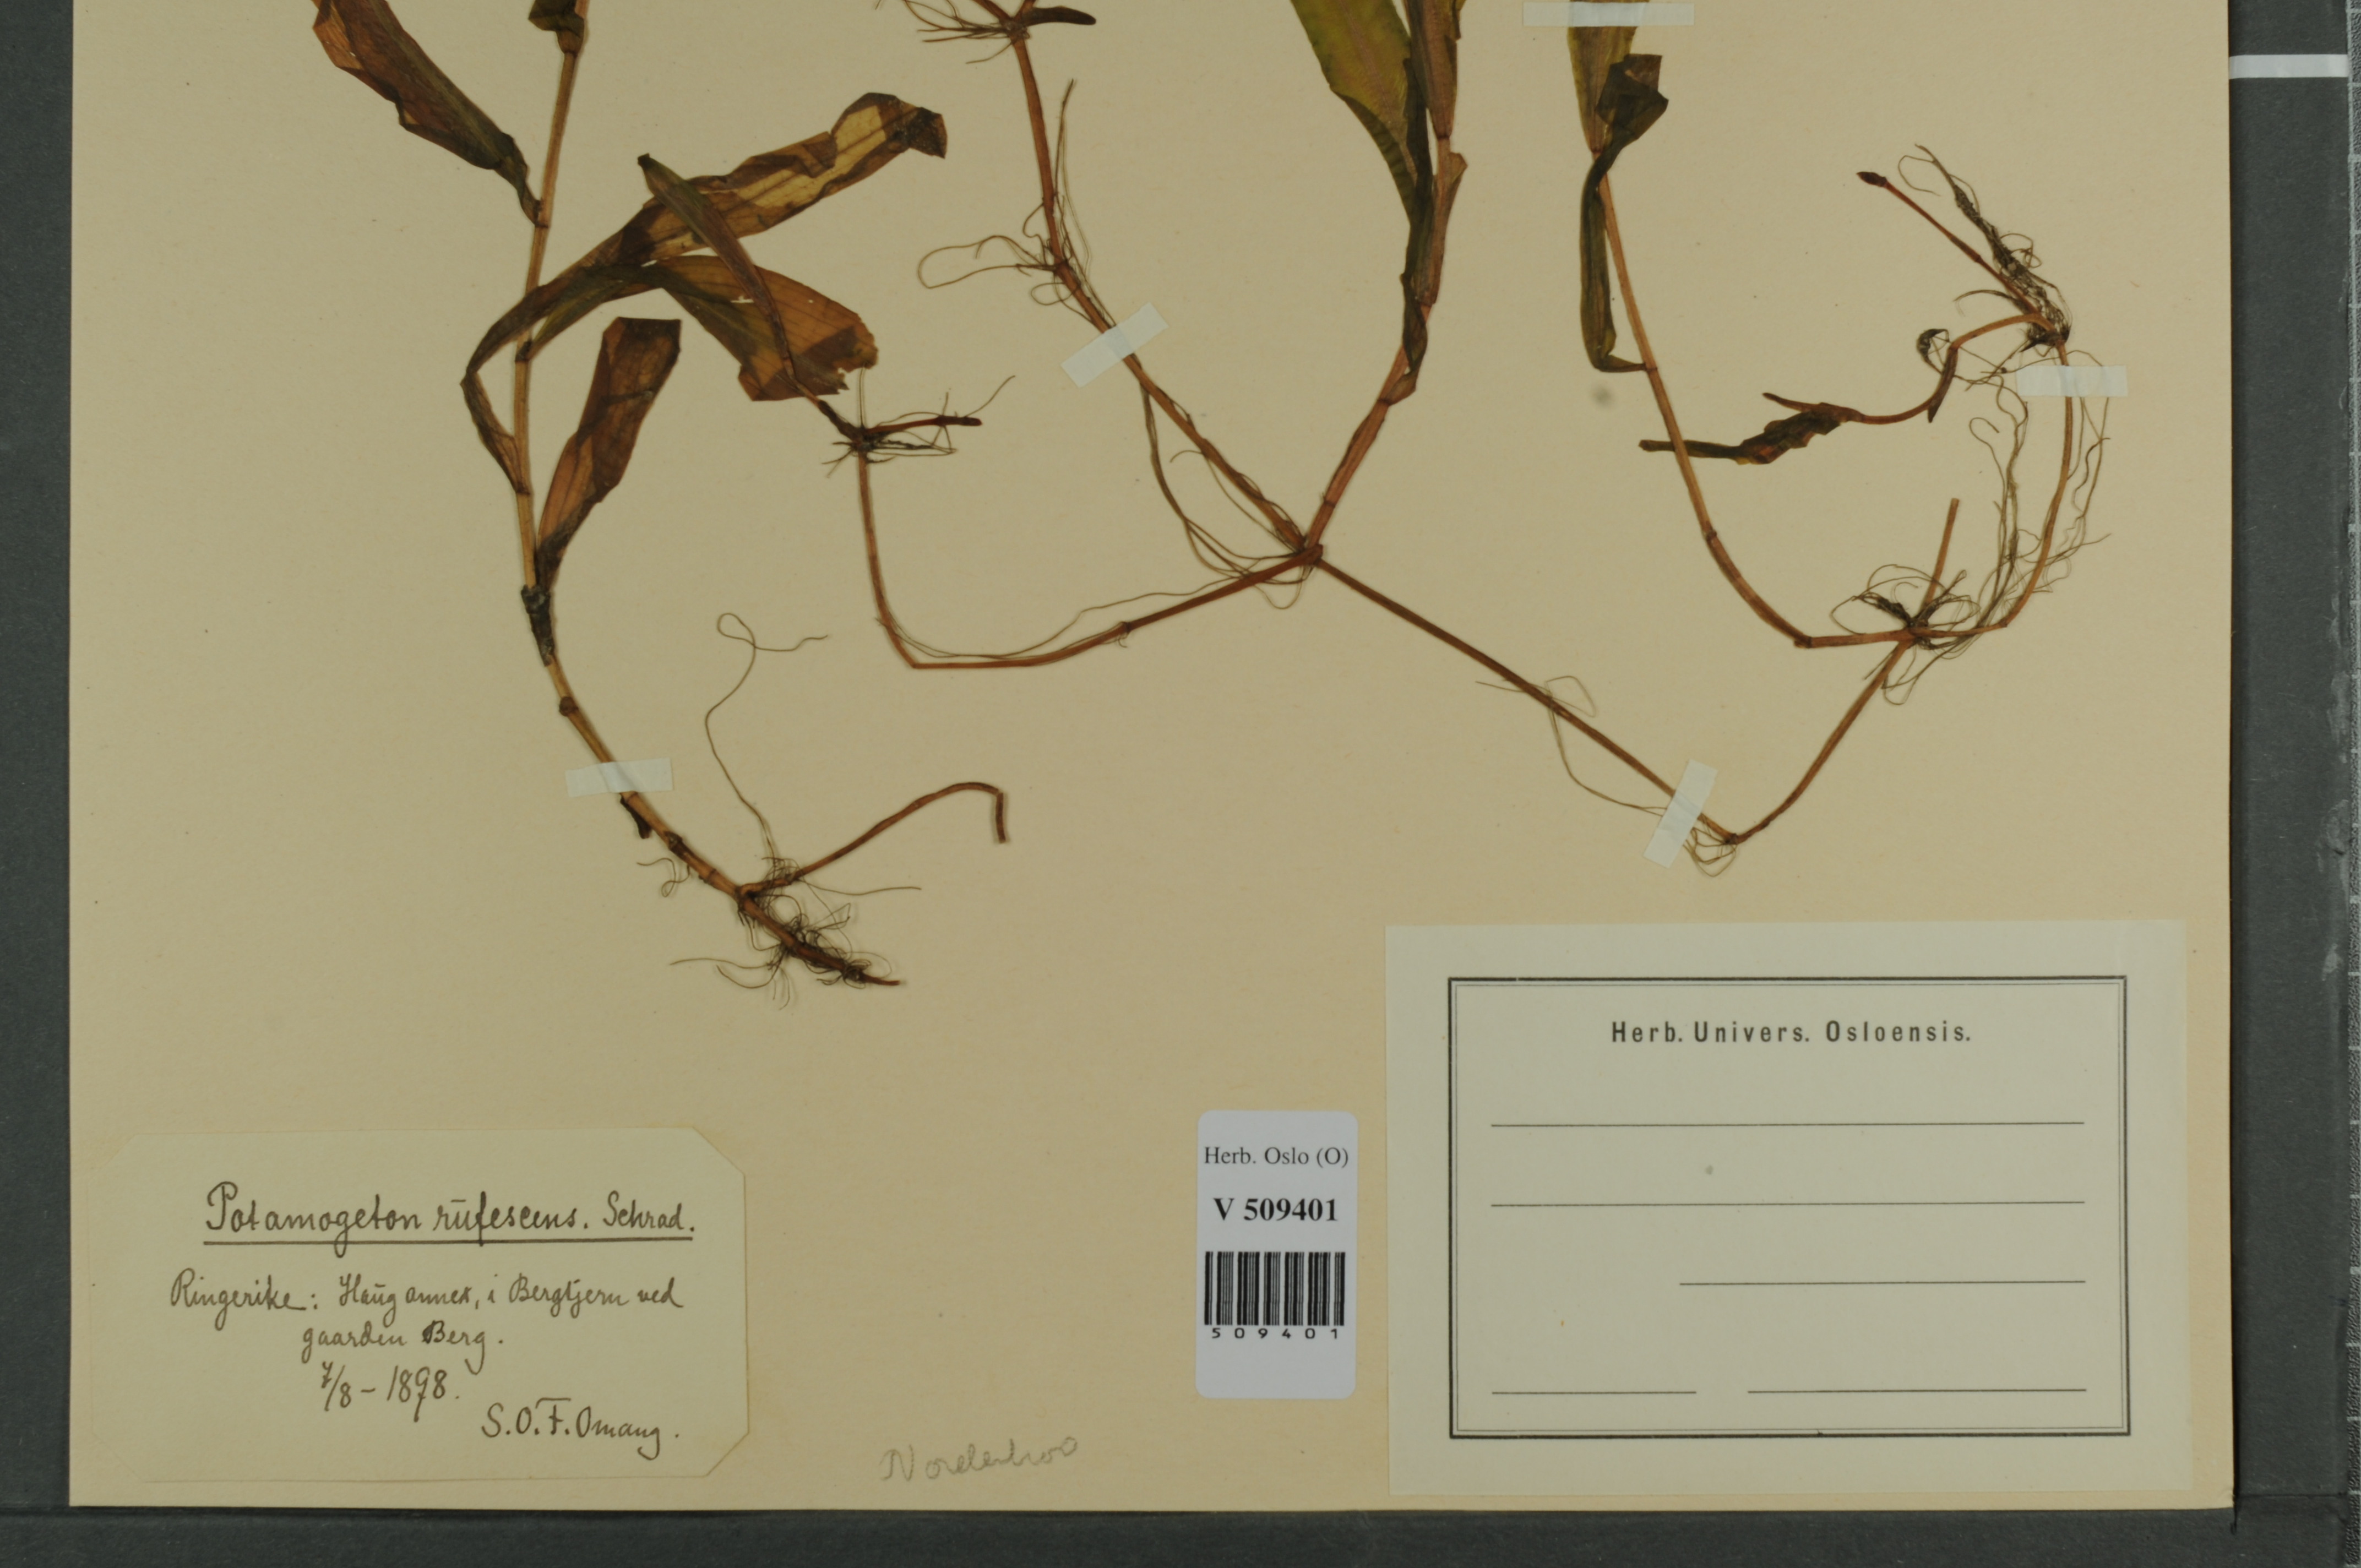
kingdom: Plantae
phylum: Tracheophyta
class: Liliopsida
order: Alismatales
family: Potamogetonaceae
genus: Potamogeton
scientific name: Potamogeton alpinus
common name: Red pondweed
